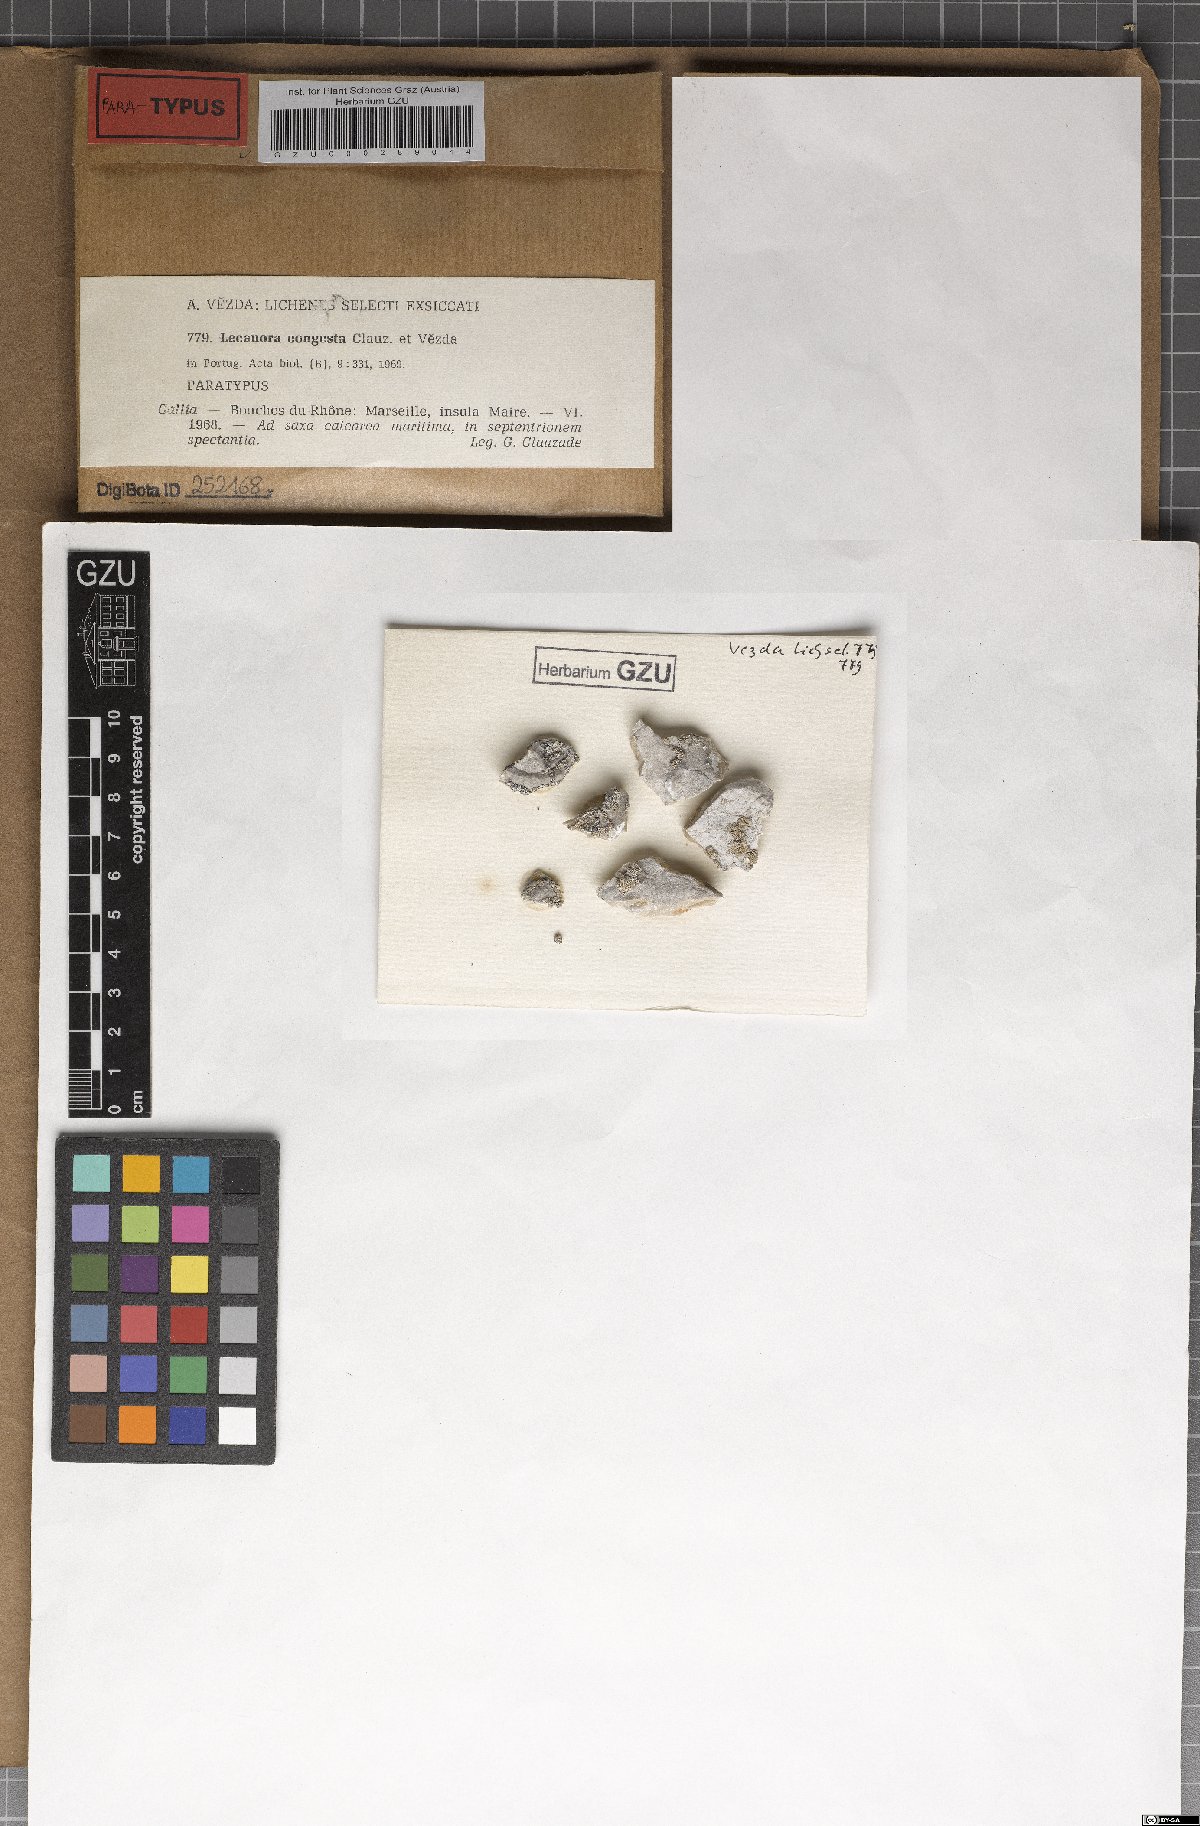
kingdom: Fungi
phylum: Ascomycota
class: Lecanoromycetes
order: Lecanorales
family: Lecanoraceae
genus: Polyozosia
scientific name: Polyozosia congesta
